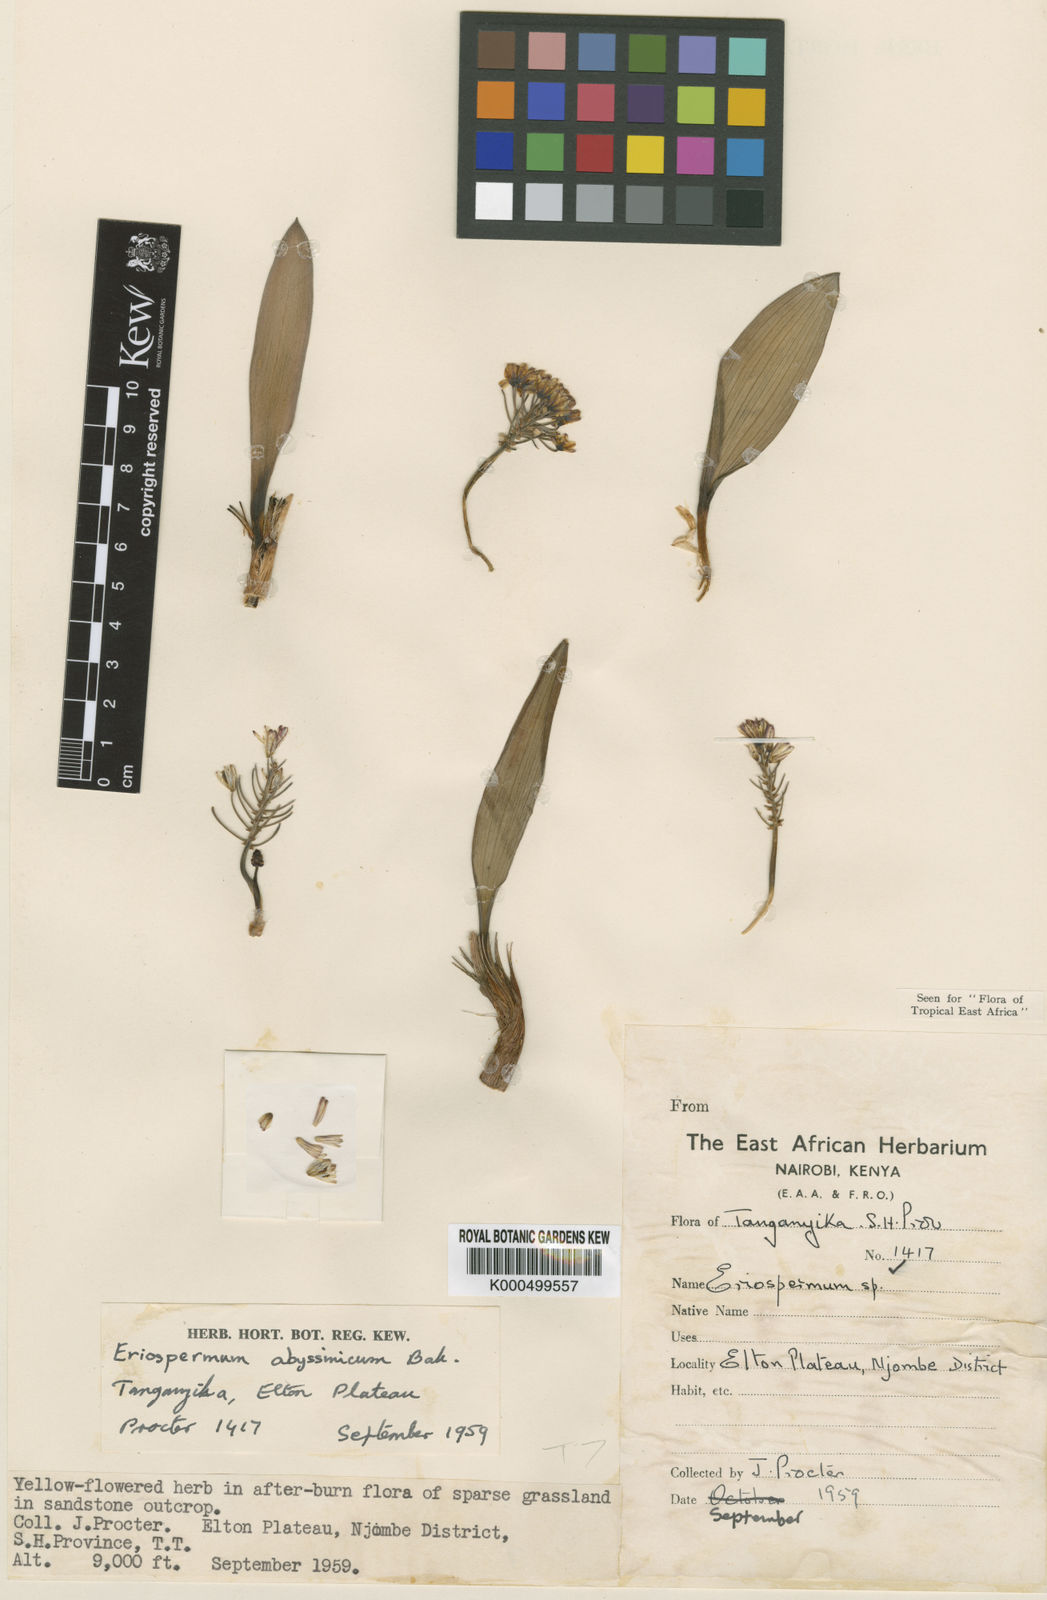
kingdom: Plantae
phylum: Tracheophyta
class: Liliopsida
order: Asparagales
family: Asparagaceae
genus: Eriospermum
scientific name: Eriospermum abyssinicum
